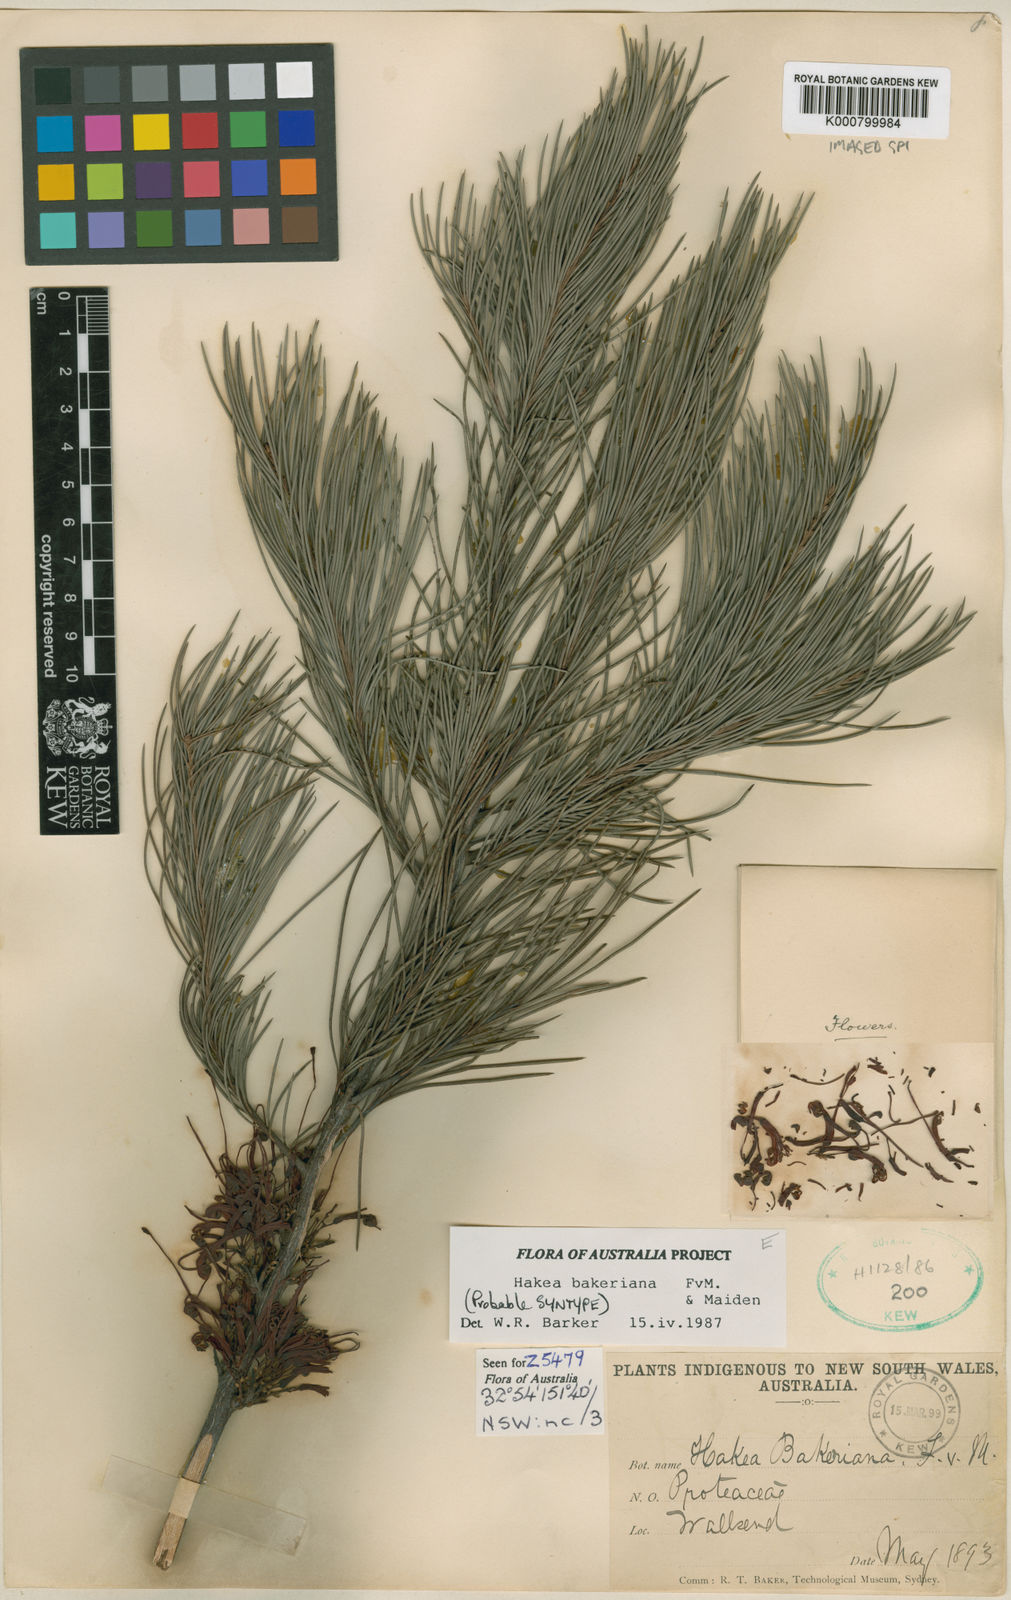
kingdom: Plantae
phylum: Tracheophyta
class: Magnoliopsida
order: Proteales
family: Proteaceae
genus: Hakea
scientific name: Hakea bakeriana
